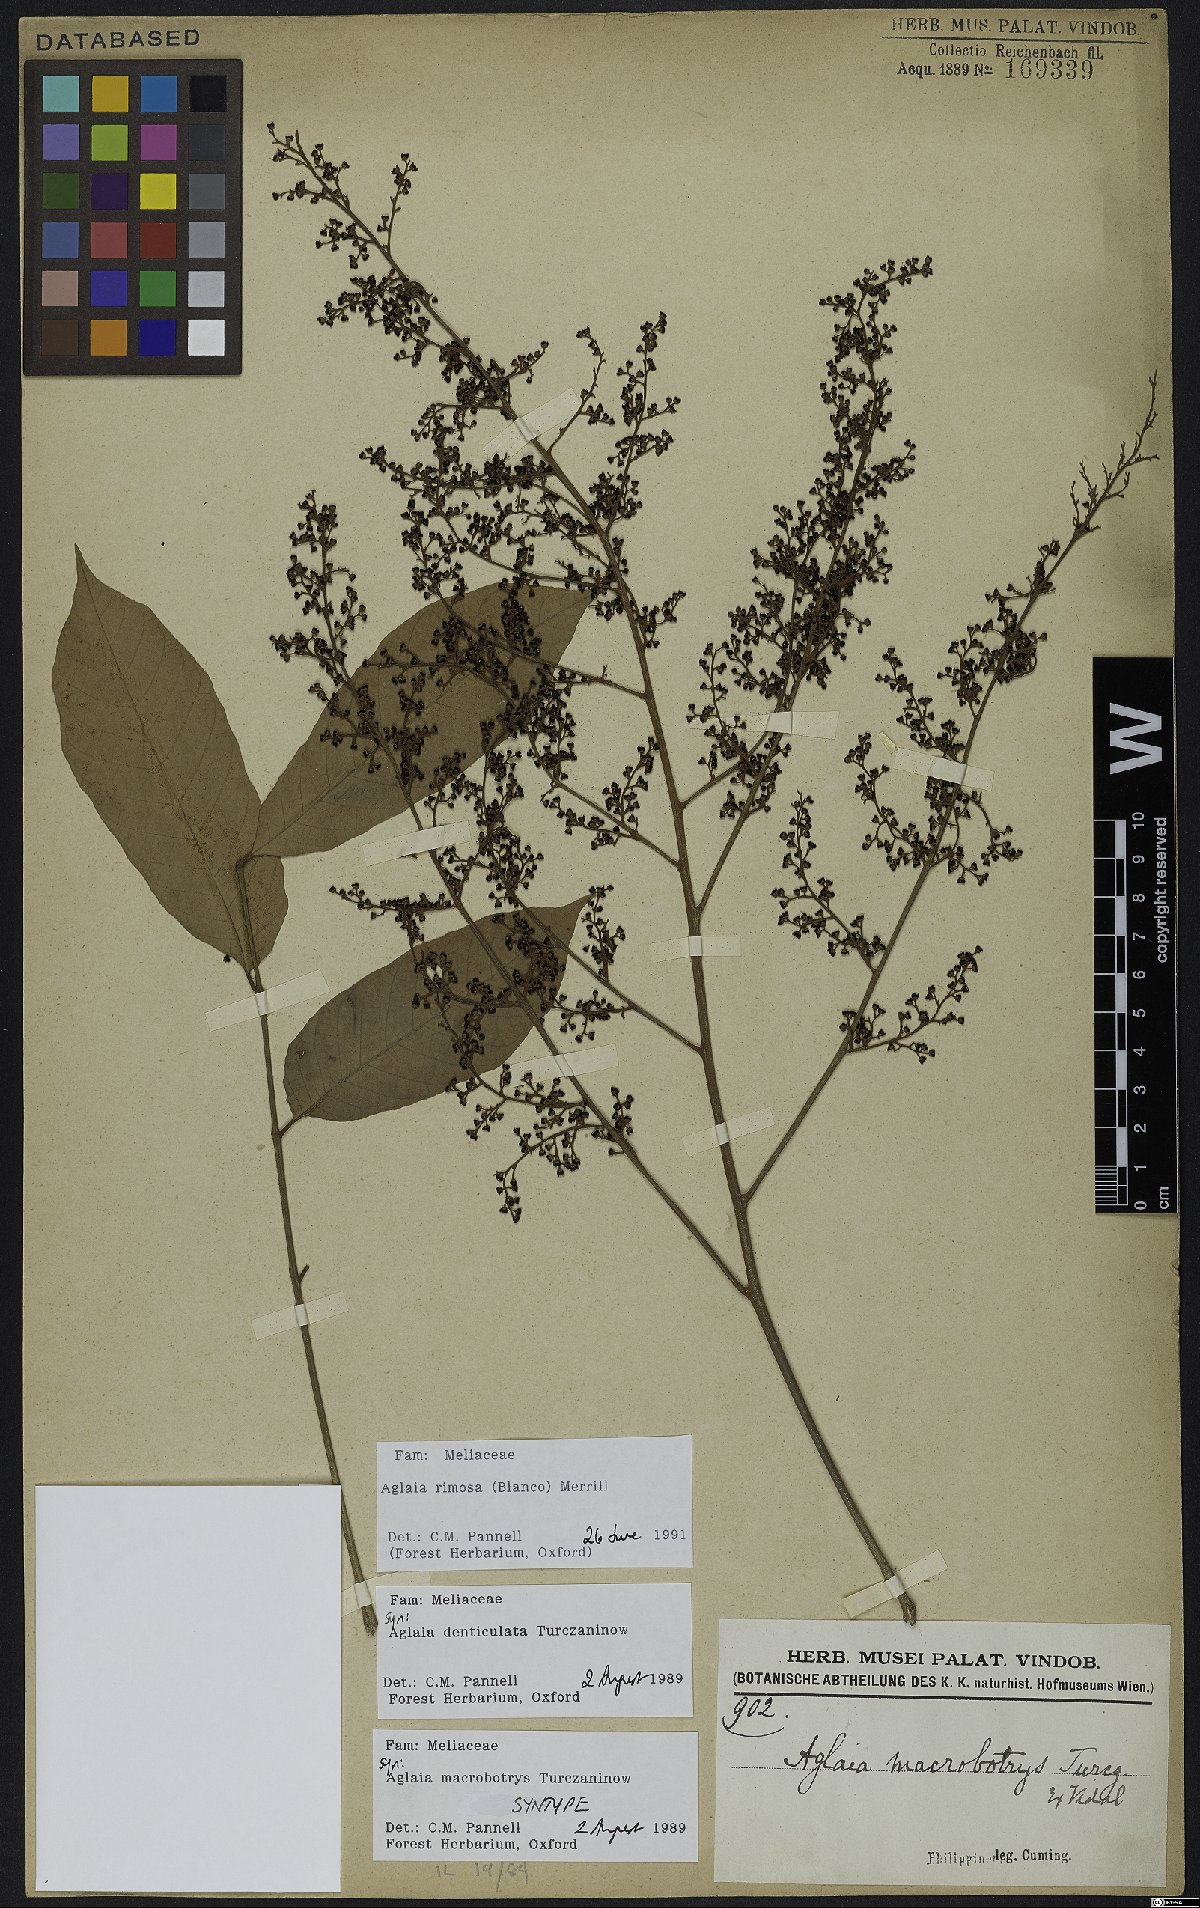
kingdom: Plantae
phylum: Tracheophyta
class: Magnoliopsida
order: Sapindales
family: Meliaceae
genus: Aglaia
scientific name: Aglaia rimosa
